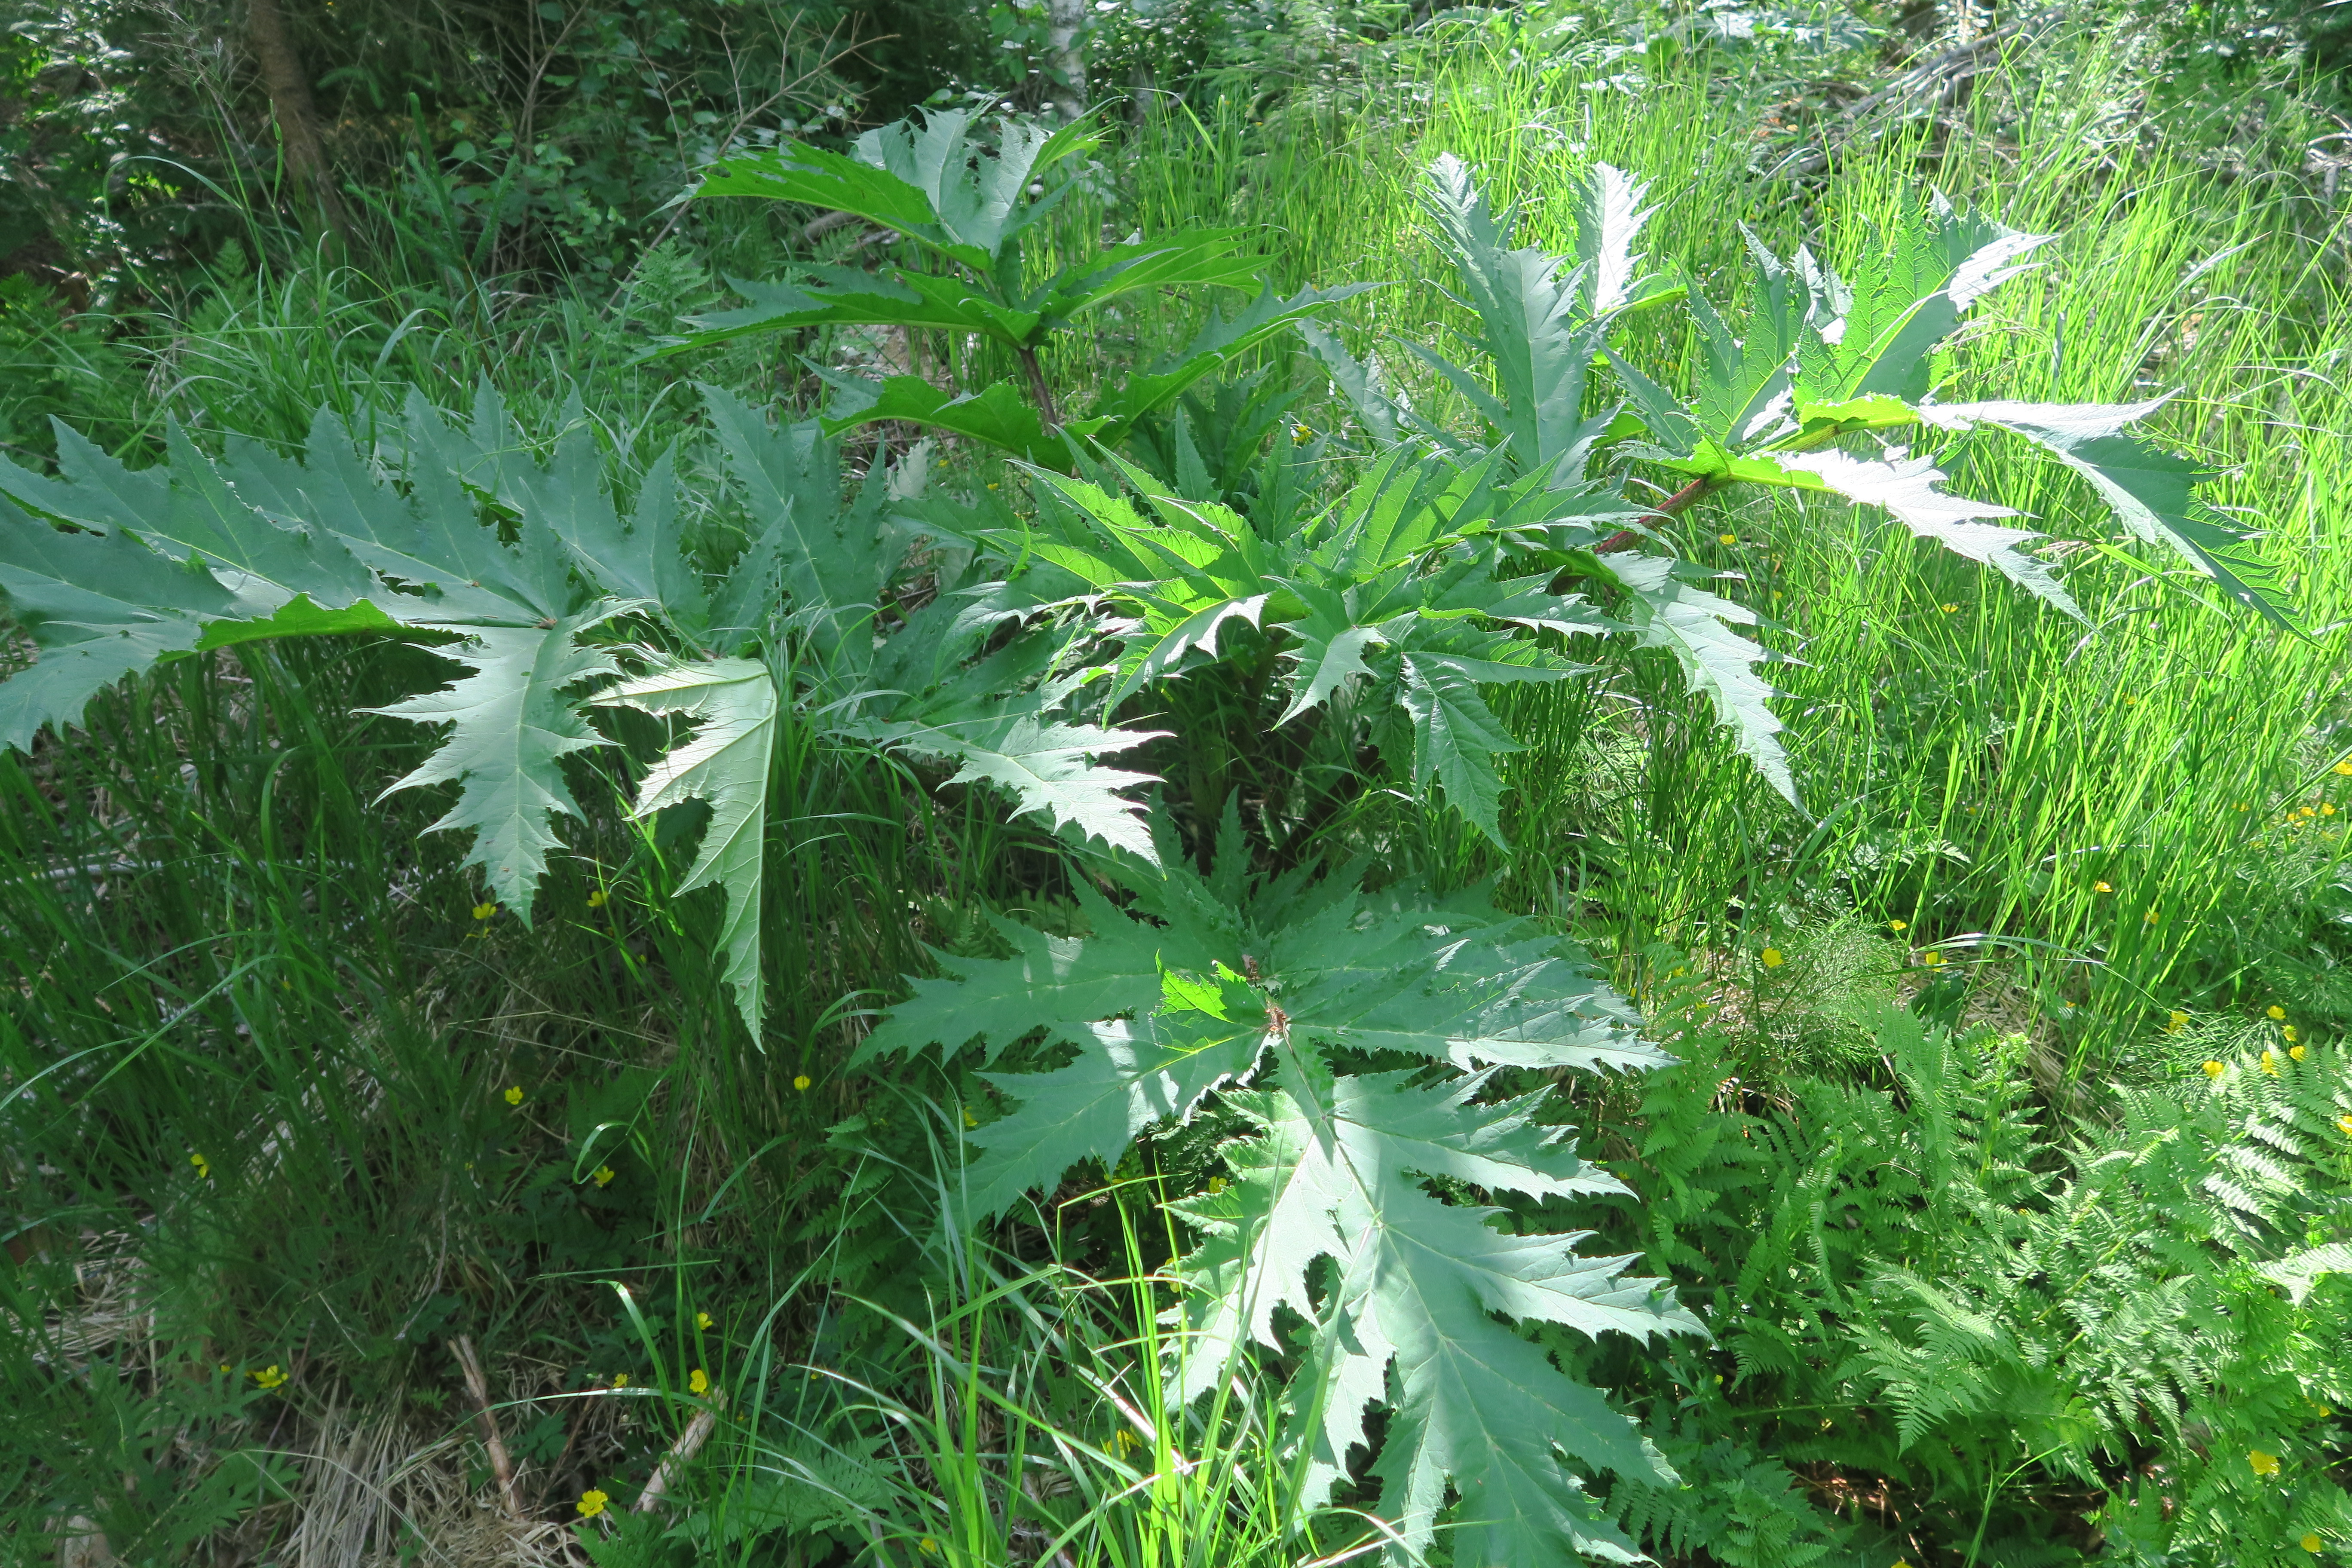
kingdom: Plantae
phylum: Tracheophyta
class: Magnoliopsida
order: Apiales
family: Apiaceae
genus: Heracleum
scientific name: Heracleum
